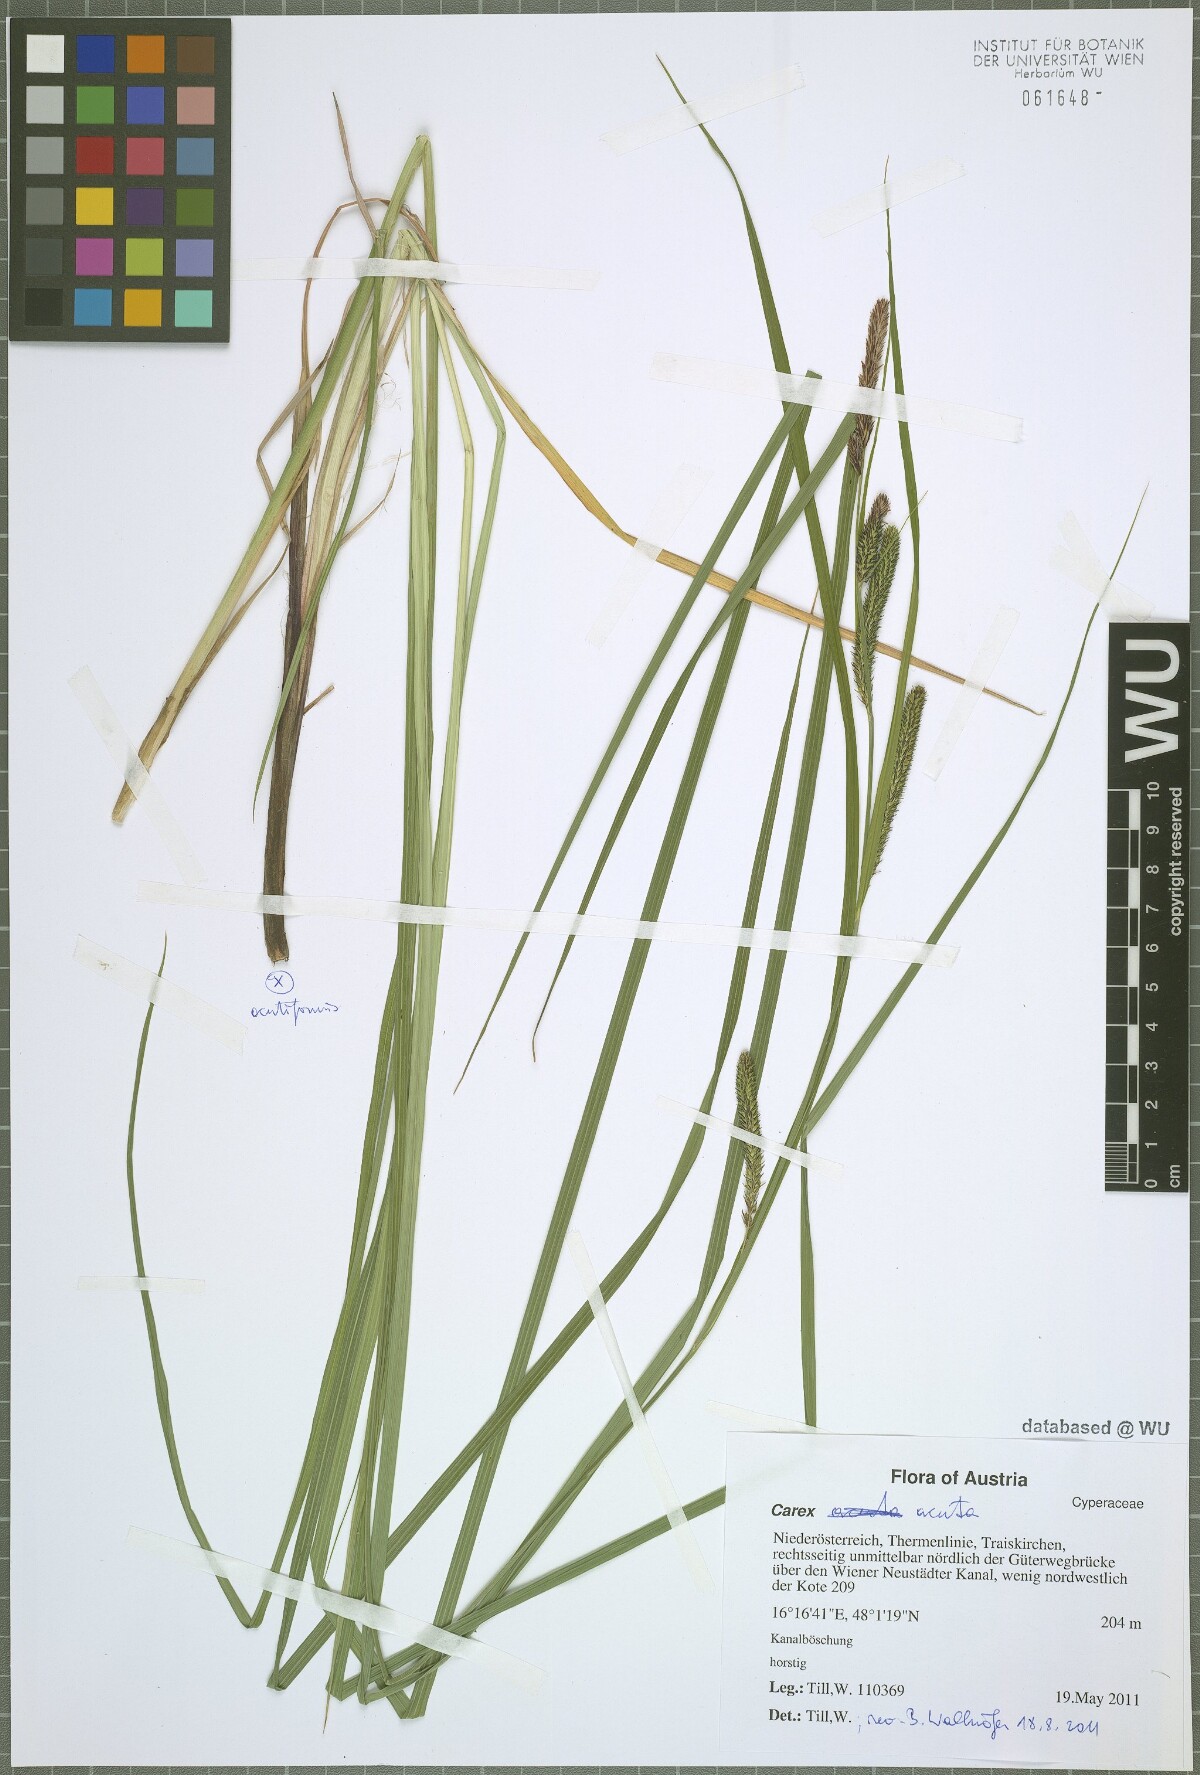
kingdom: Plantae
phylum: Tracheophyta
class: Liliopsida
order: Poales
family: Cyperaceae
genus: Carex
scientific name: Carex acuta
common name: Slender tufted-sedge
